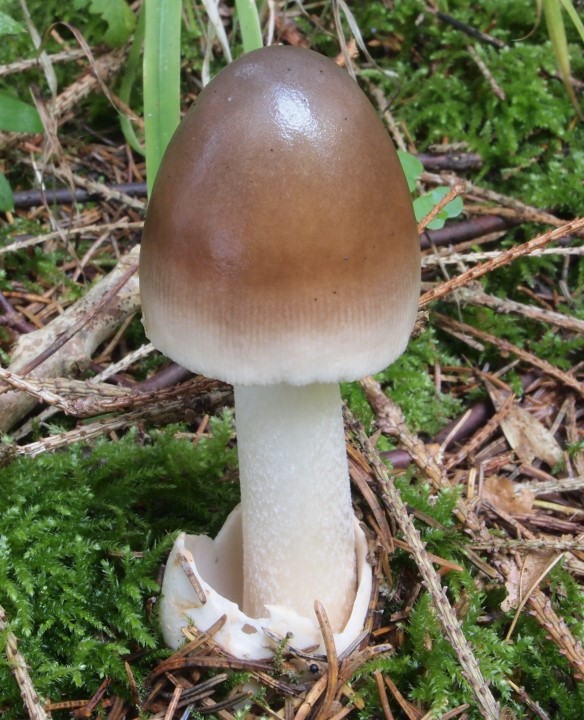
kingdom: Fungi
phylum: Basidiomycota
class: Agaricomycetes
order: Agaricales
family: Amanitaceae
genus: Amanita
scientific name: Amanita fulva
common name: brun kam-fluesvamp
